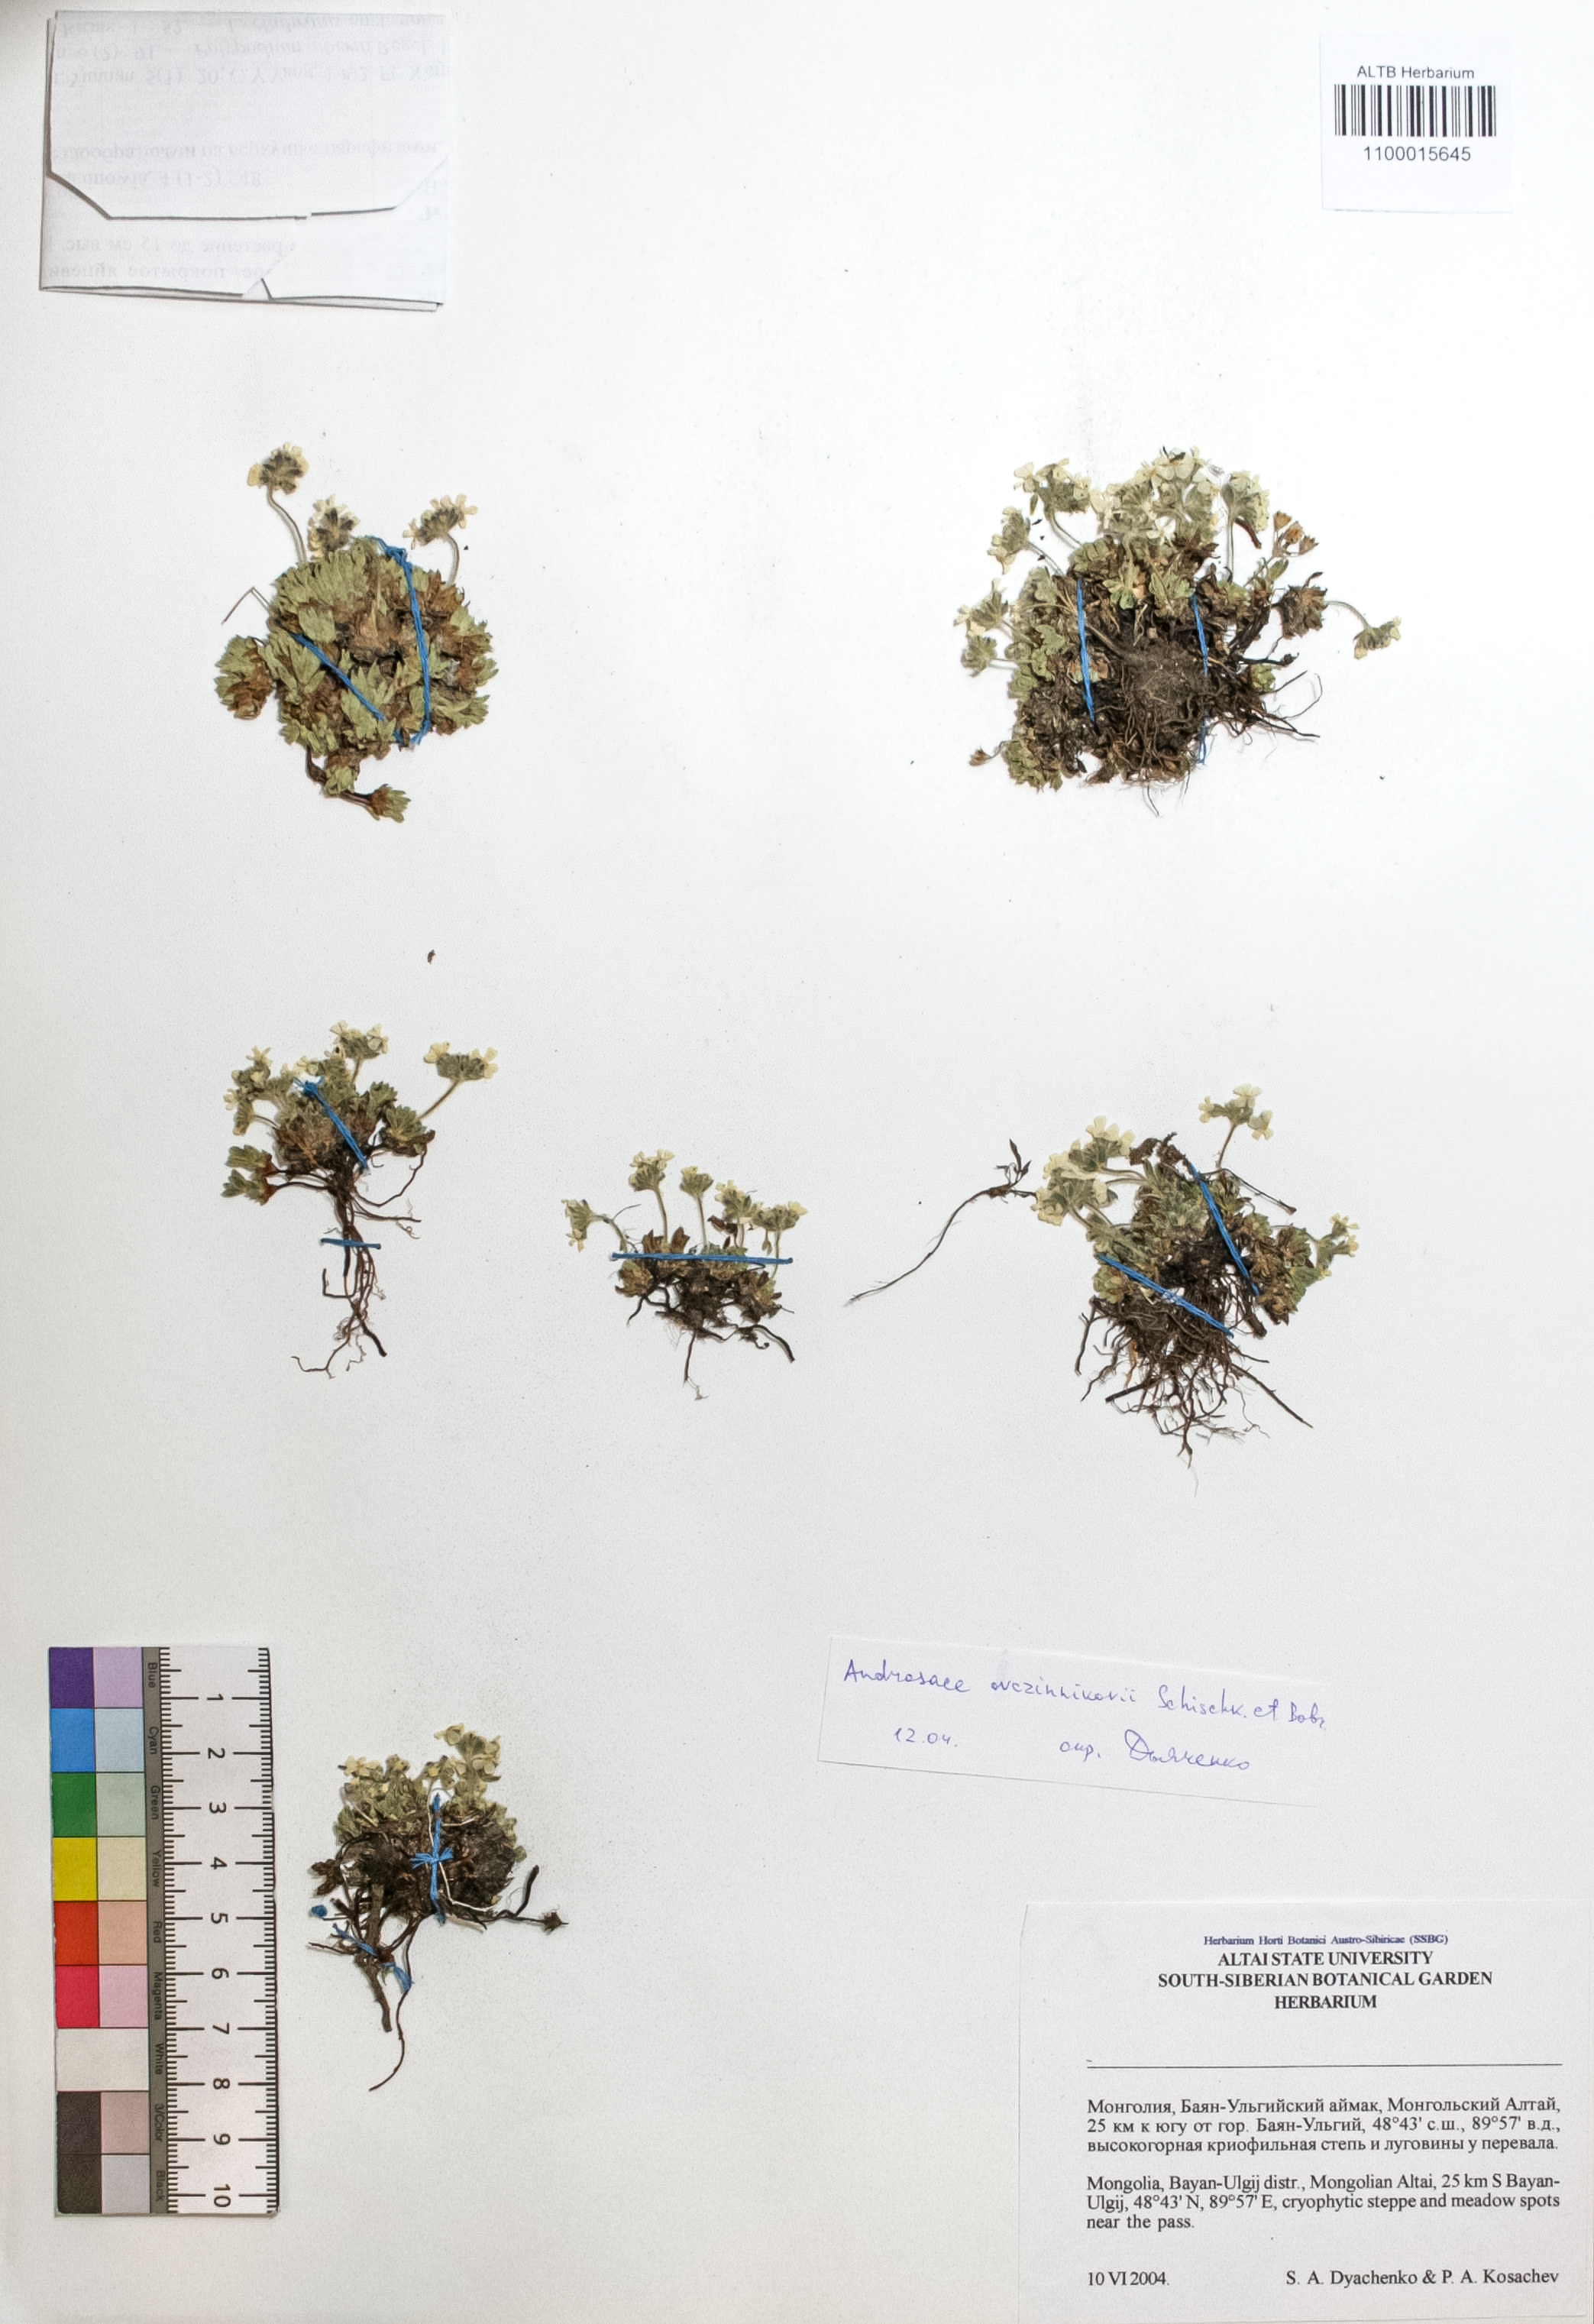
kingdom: Plantae
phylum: Tracheophyta
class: Magnoliopsida
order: Ericales
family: Primulaceae
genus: Androsace
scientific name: Androsace ovczinnikovii
